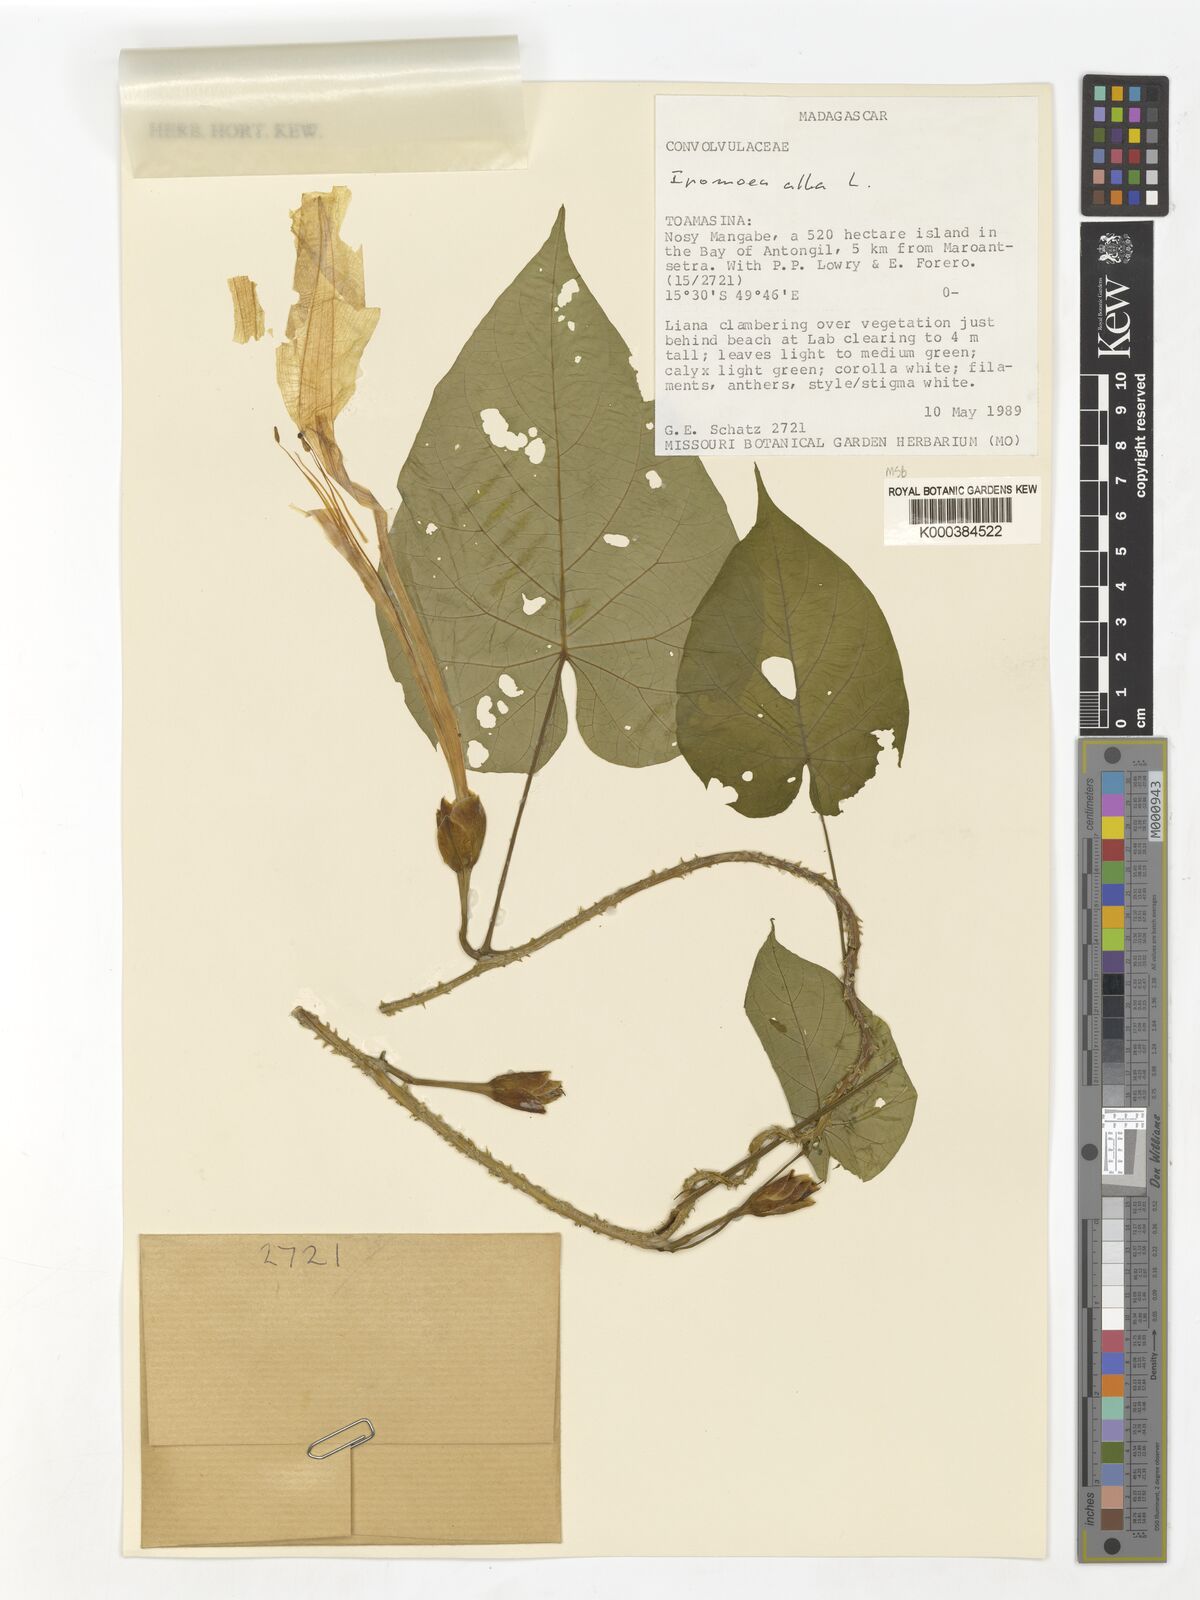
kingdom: Plantae
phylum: Tracheophyta
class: Magnoliopsida
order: Solanales
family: Convolvulaceae
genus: Ipomoea
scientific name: Ipomoea alba
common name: Moonflower
